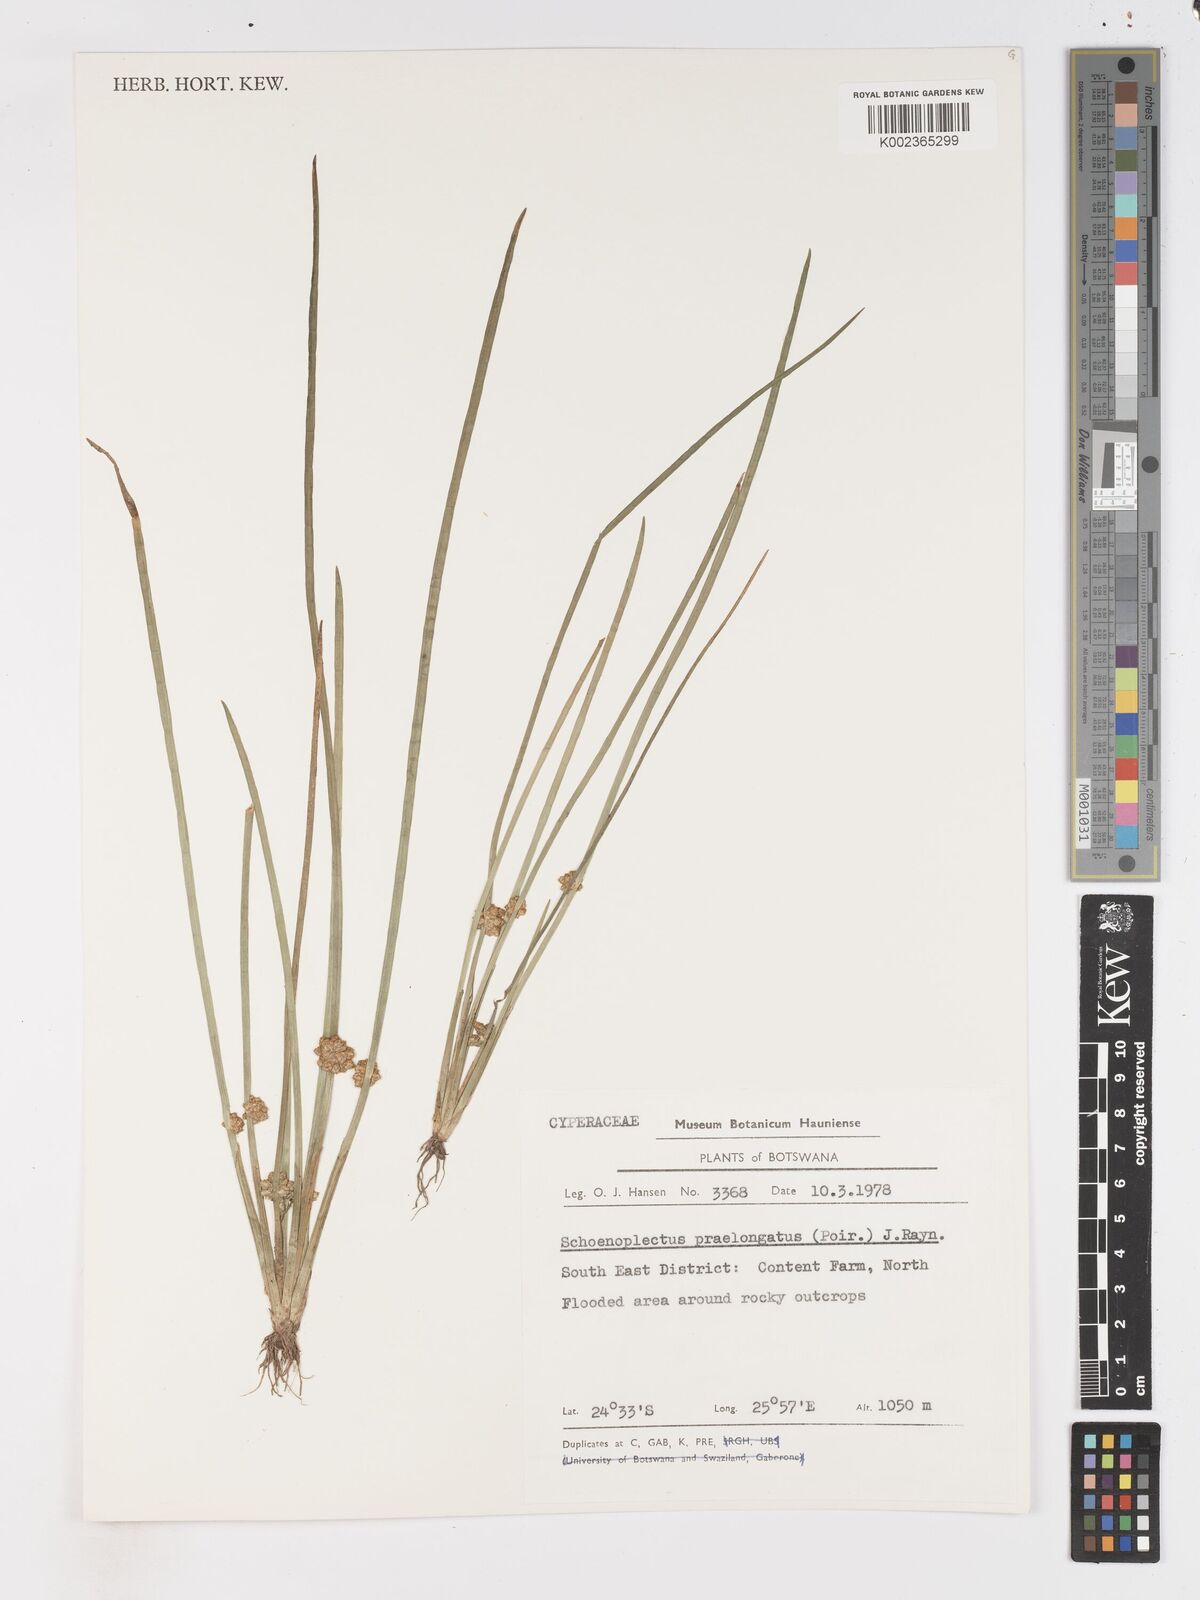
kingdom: Plantae
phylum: Tracheophyta
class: Liliopsida
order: Poales
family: Cyperaceae
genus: Schoenoplectiella
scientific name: Schoenoplectiella senegalensis
